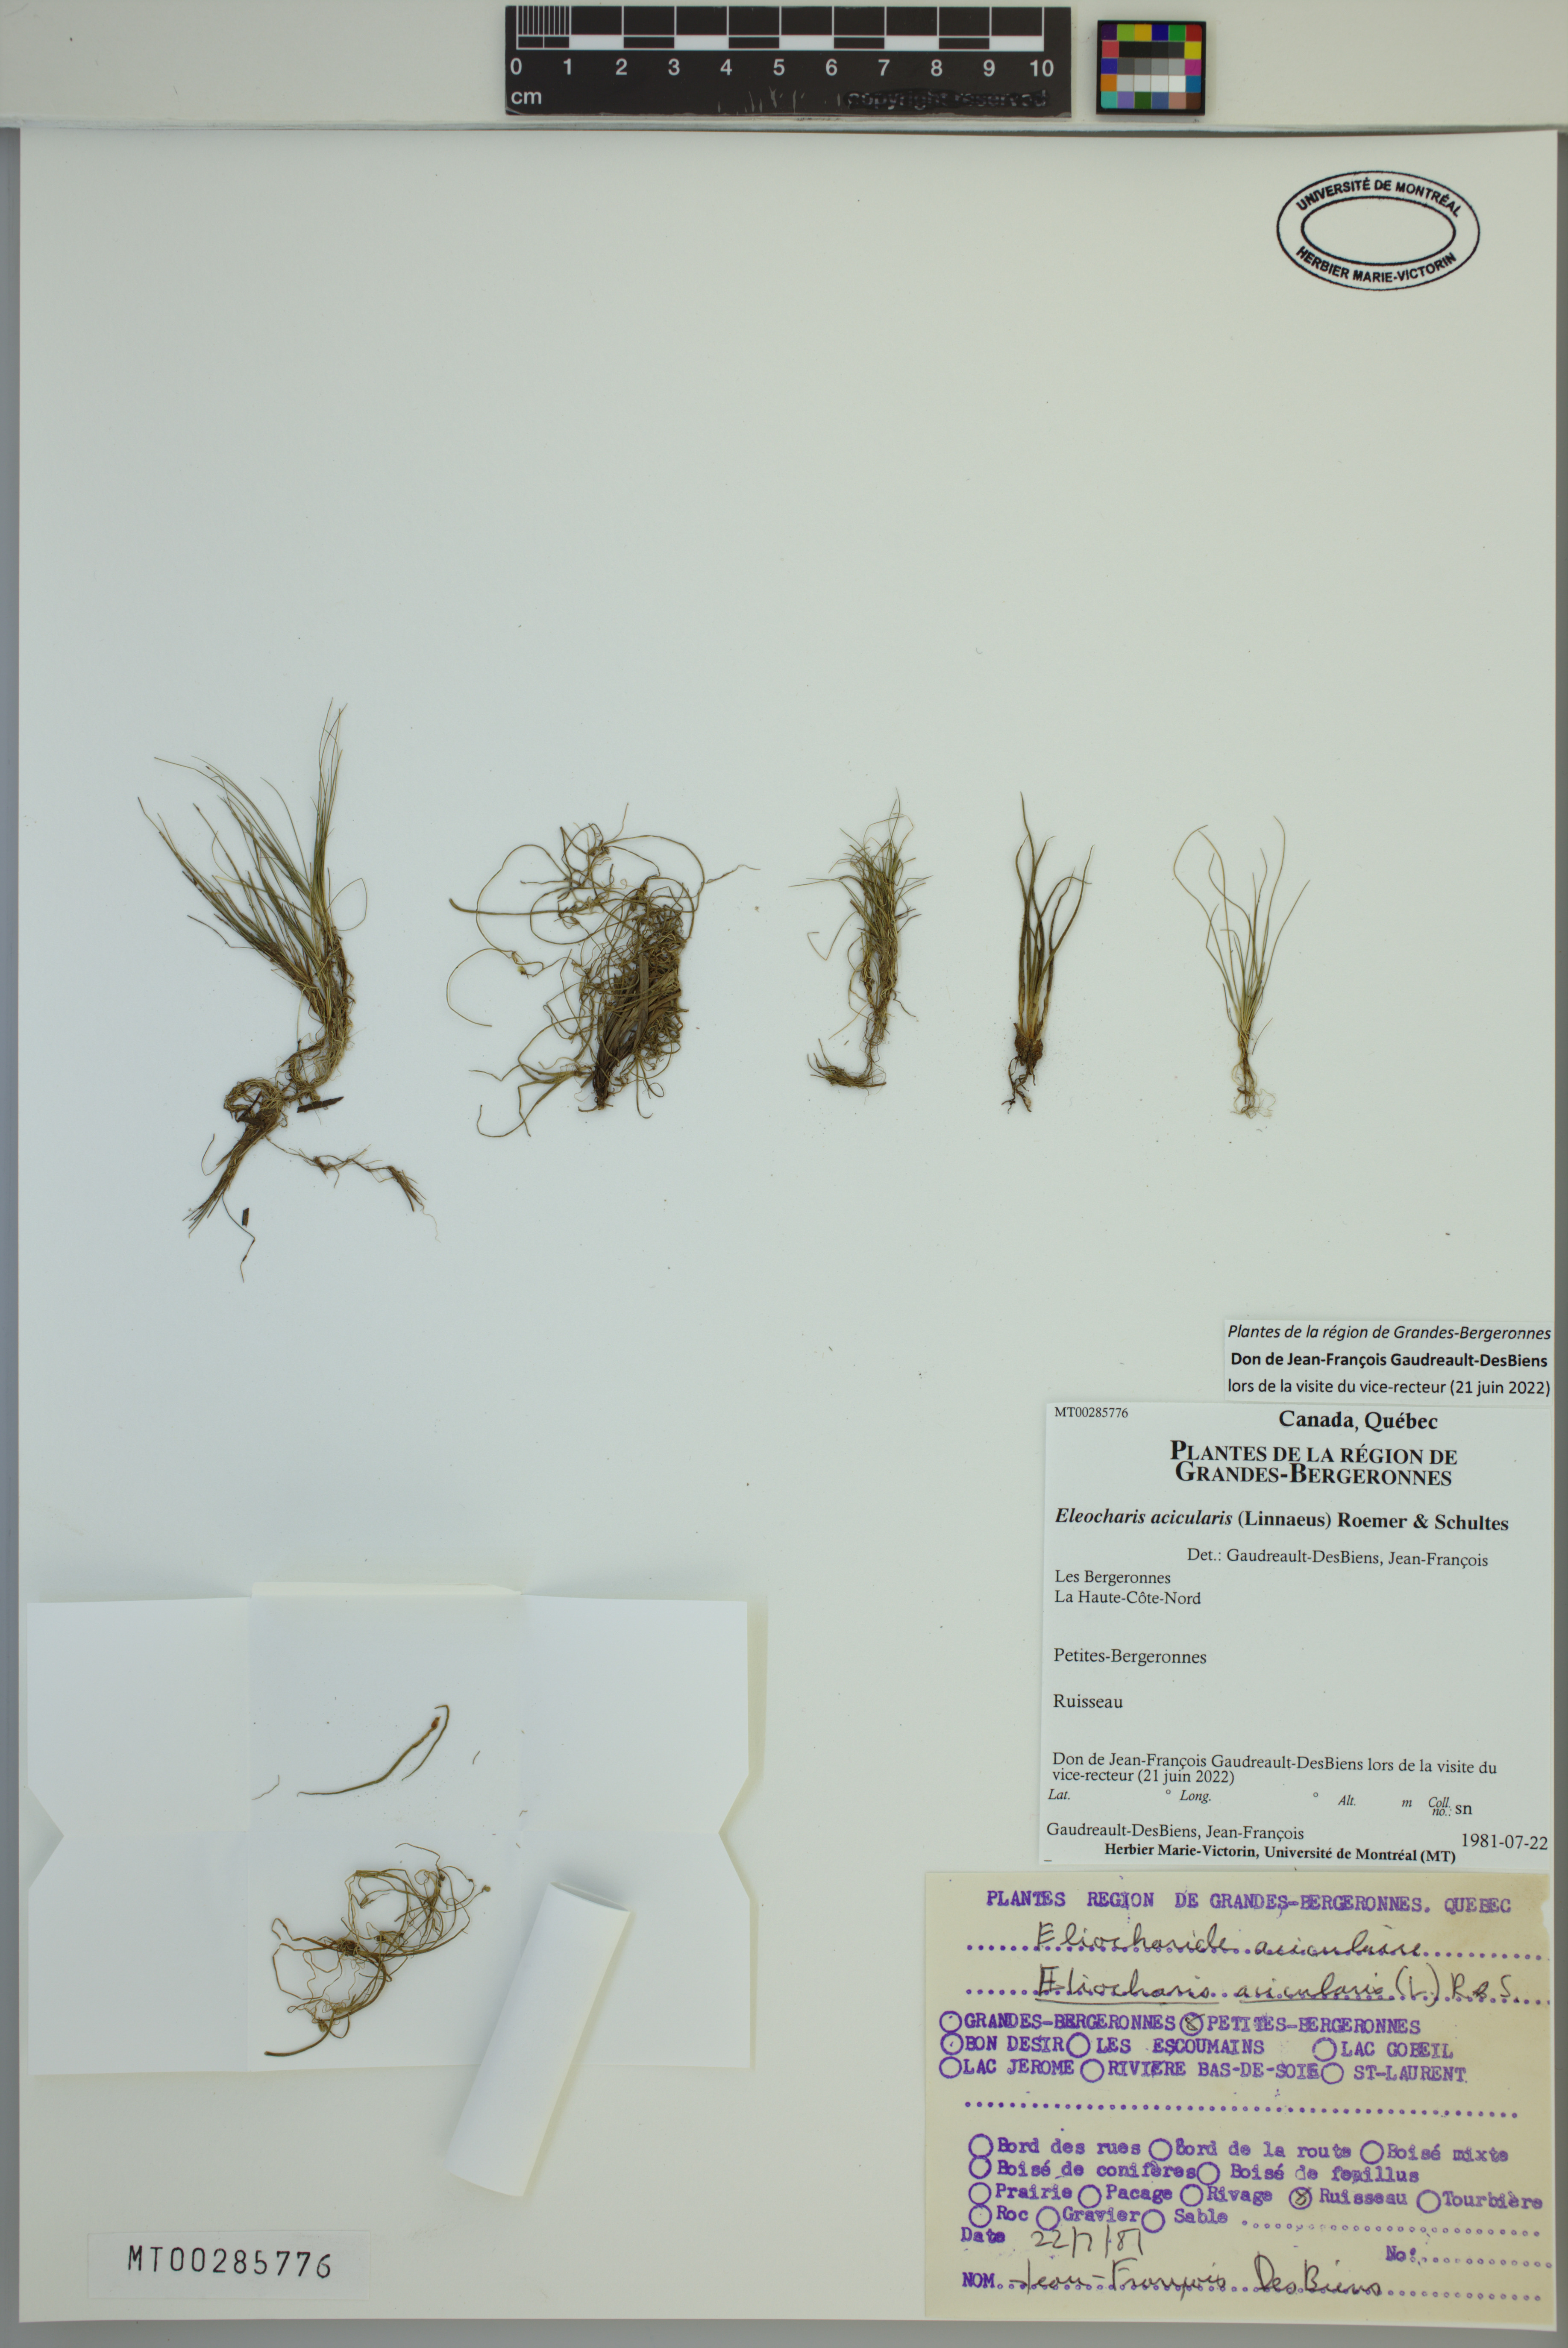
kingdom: Plantae
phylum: Tracheophyta
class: Liliopsida
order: Poales
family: Cyperaceae
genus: Eleocharis
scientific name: Eleocharis acicularis
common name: Needle spike-rush
